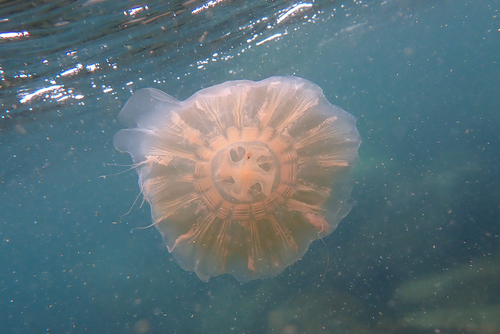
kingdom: Animalia
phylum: Cnidaria
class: Scyphozoa
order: Semaeostomeae
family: Cyaneidae
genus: Cyanea
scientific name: Cyanea nozakii
